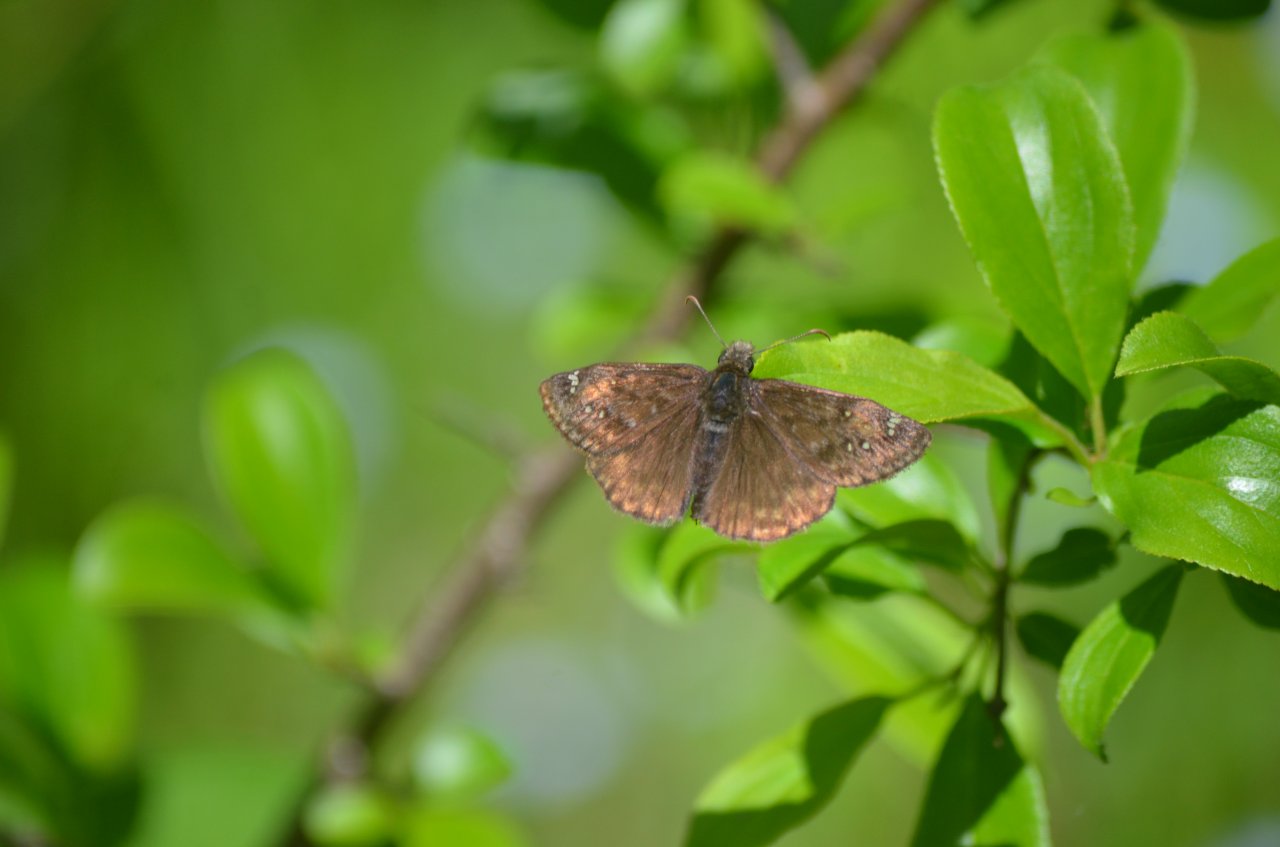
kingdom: Animalia
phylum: Arthropoda
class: Insecta
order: Lepidoptera
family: Hesperiidae
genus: Gesta
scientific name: Gesta
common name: Juvenal's Duskywing
